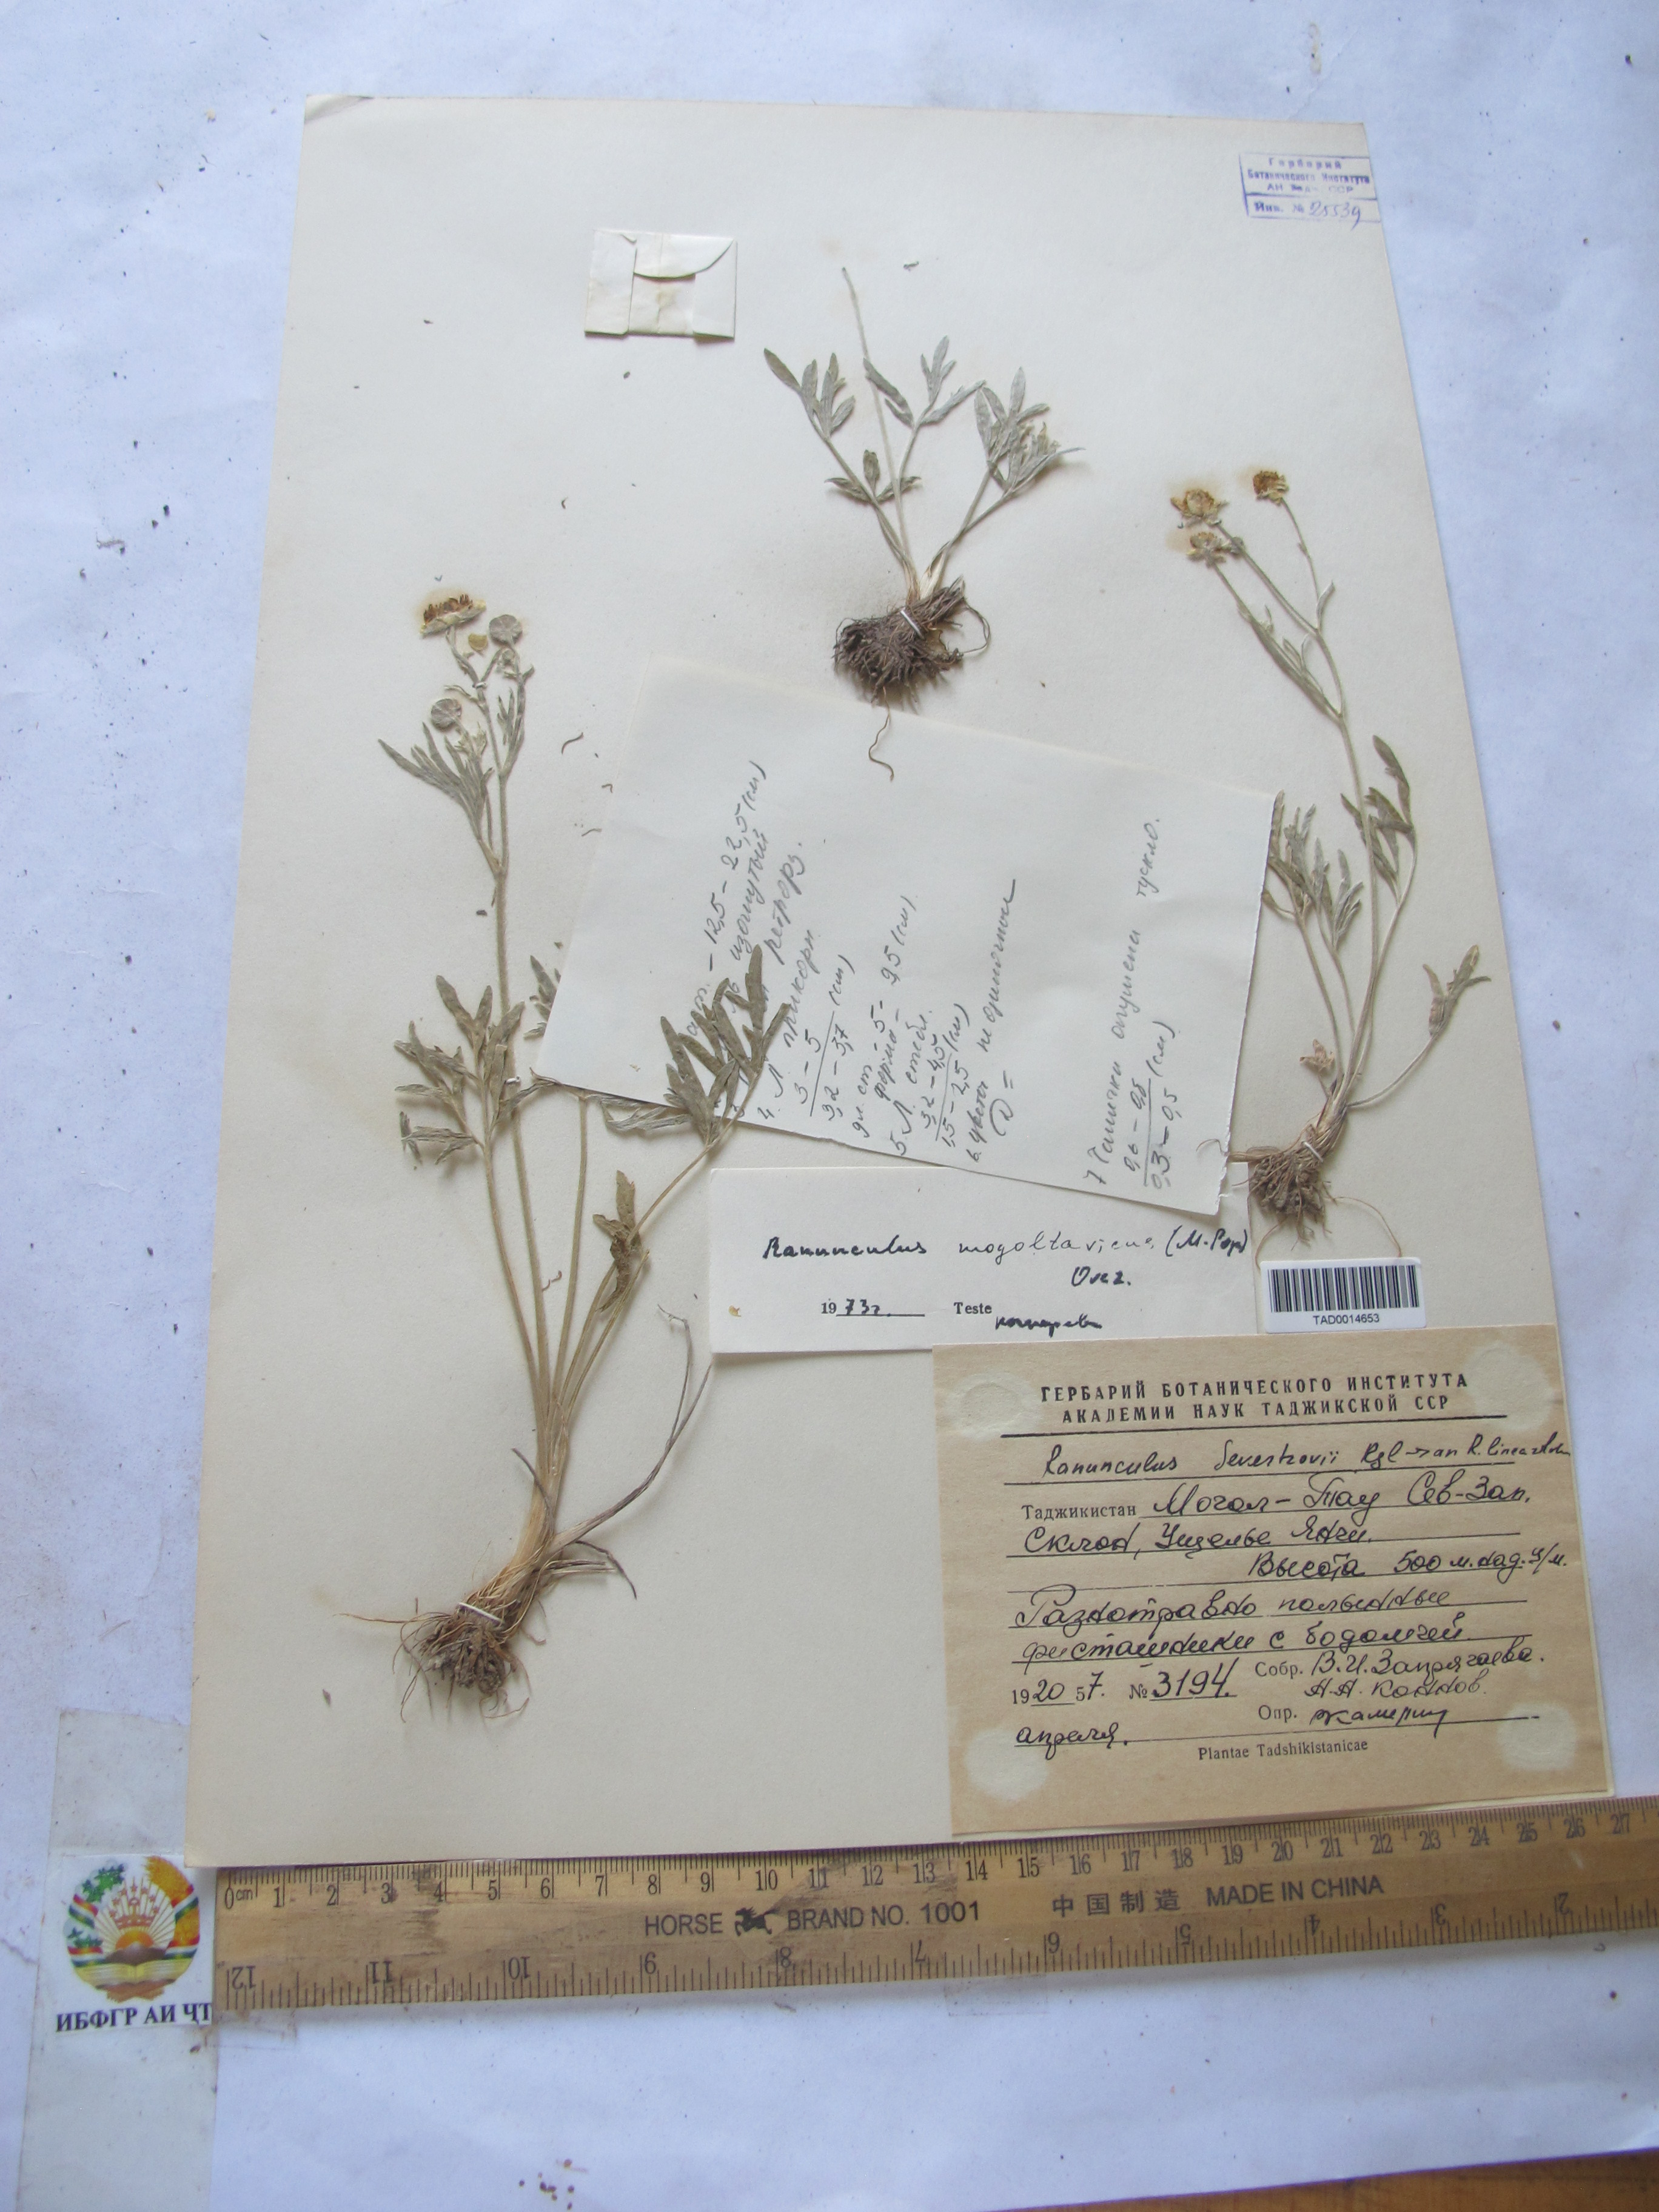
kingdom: Plantae
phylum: Tracheophyta
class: Magnoliopsida
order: Ranunculales
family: Ranunculaceae
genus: Ranunculus
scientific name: Ranunculus
